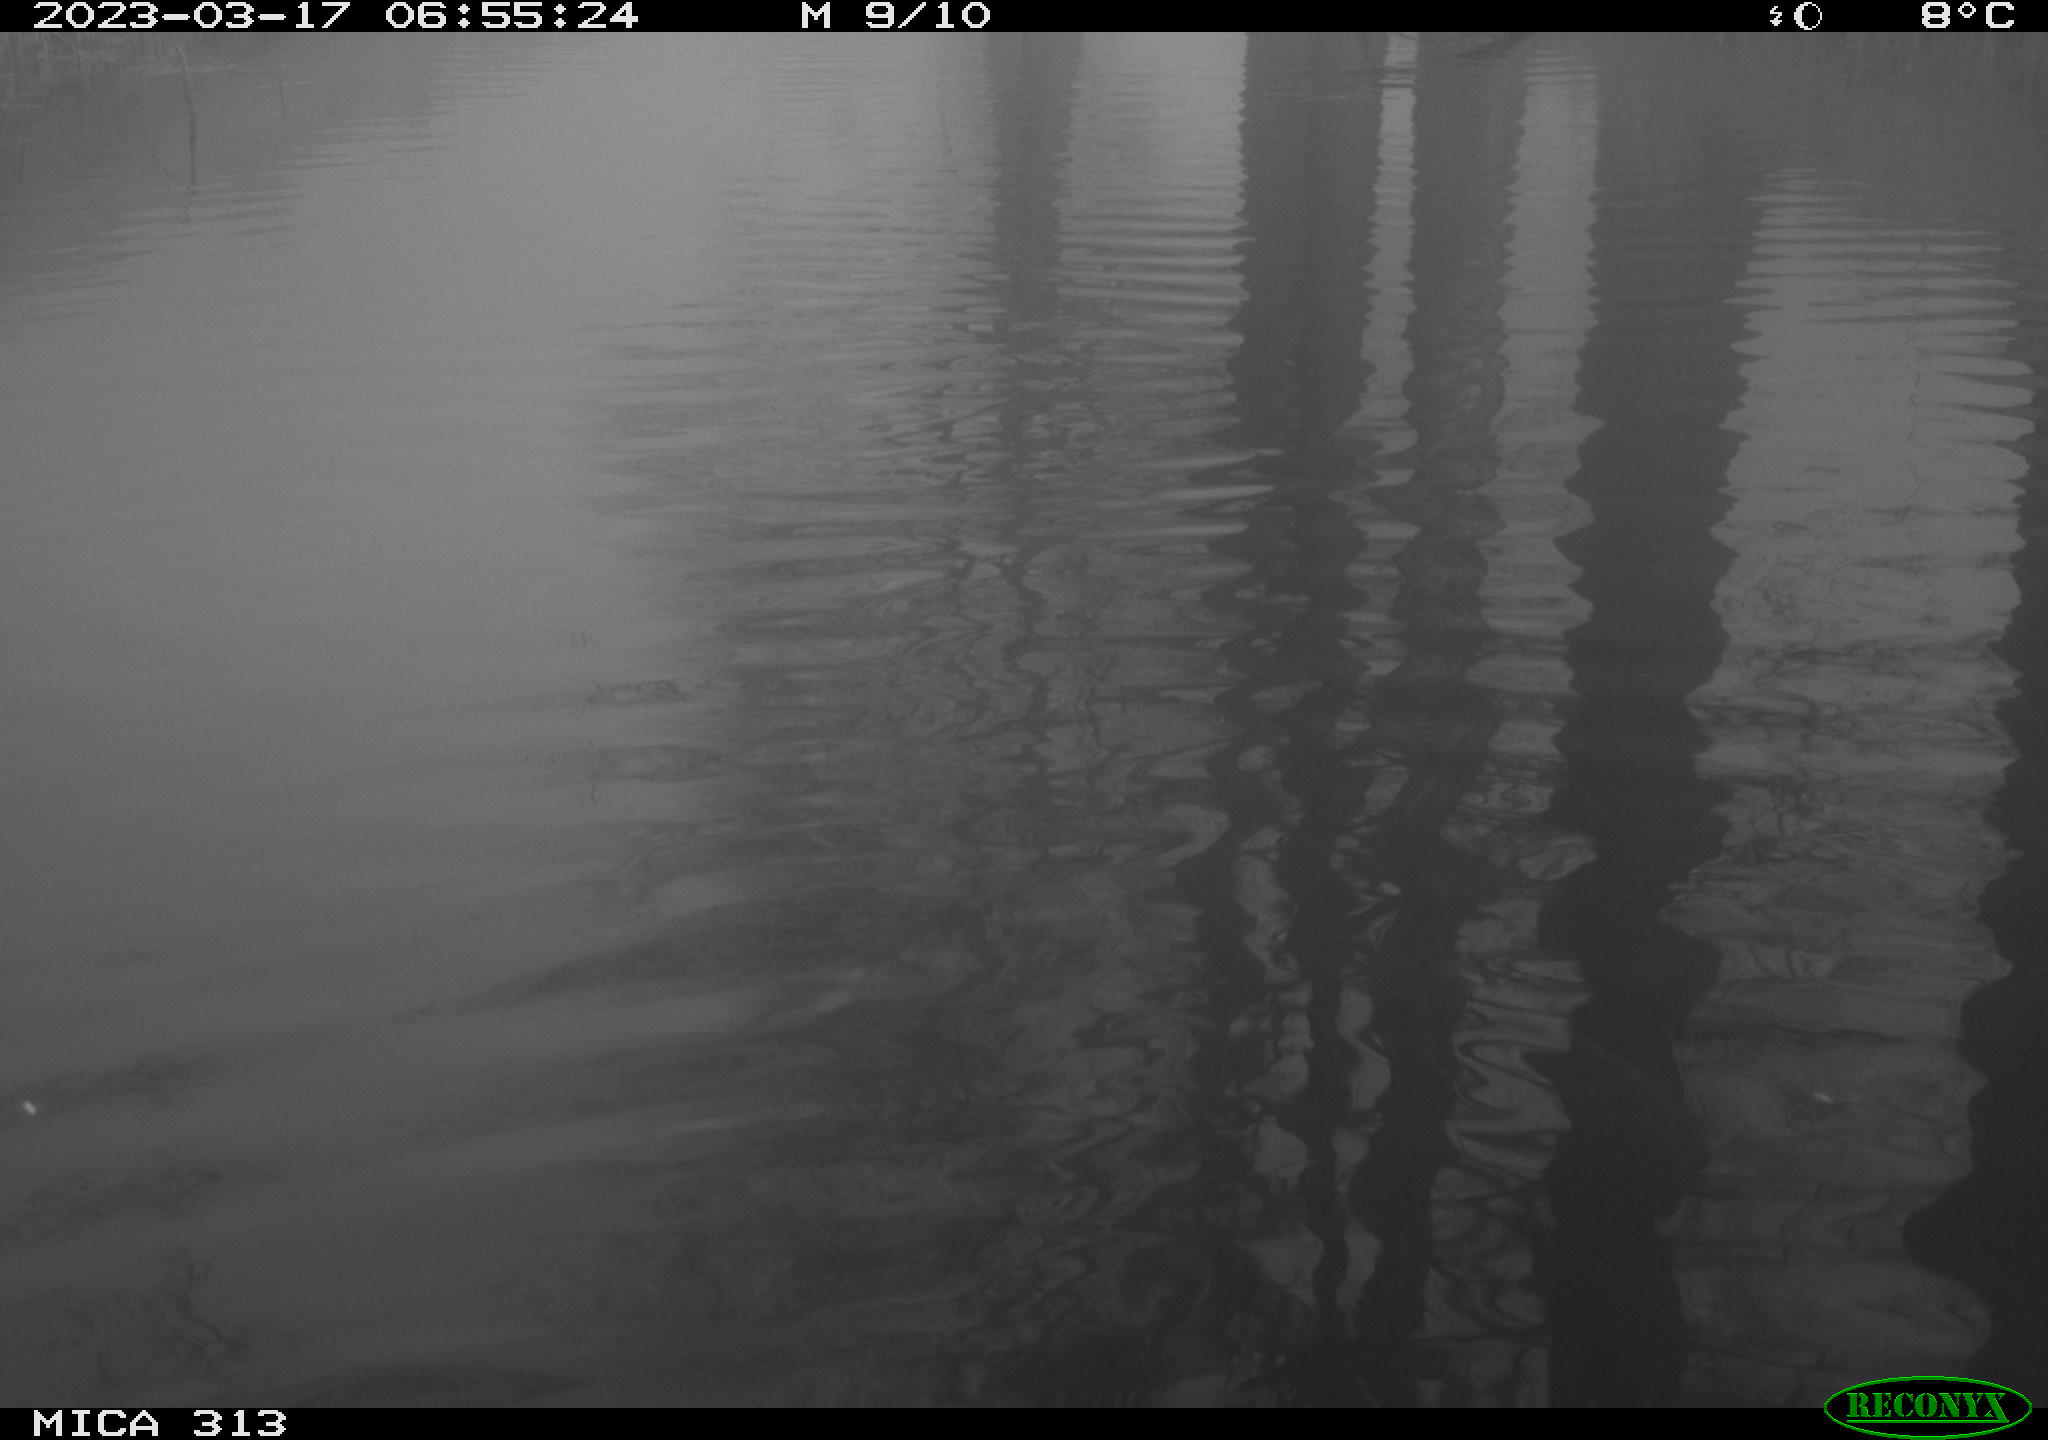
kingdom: Animalia
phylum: Chordata
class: Aves
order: Gruiformes
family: Rallidae
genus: Fulica
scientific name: Fulica atra
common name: Eurasian coot
